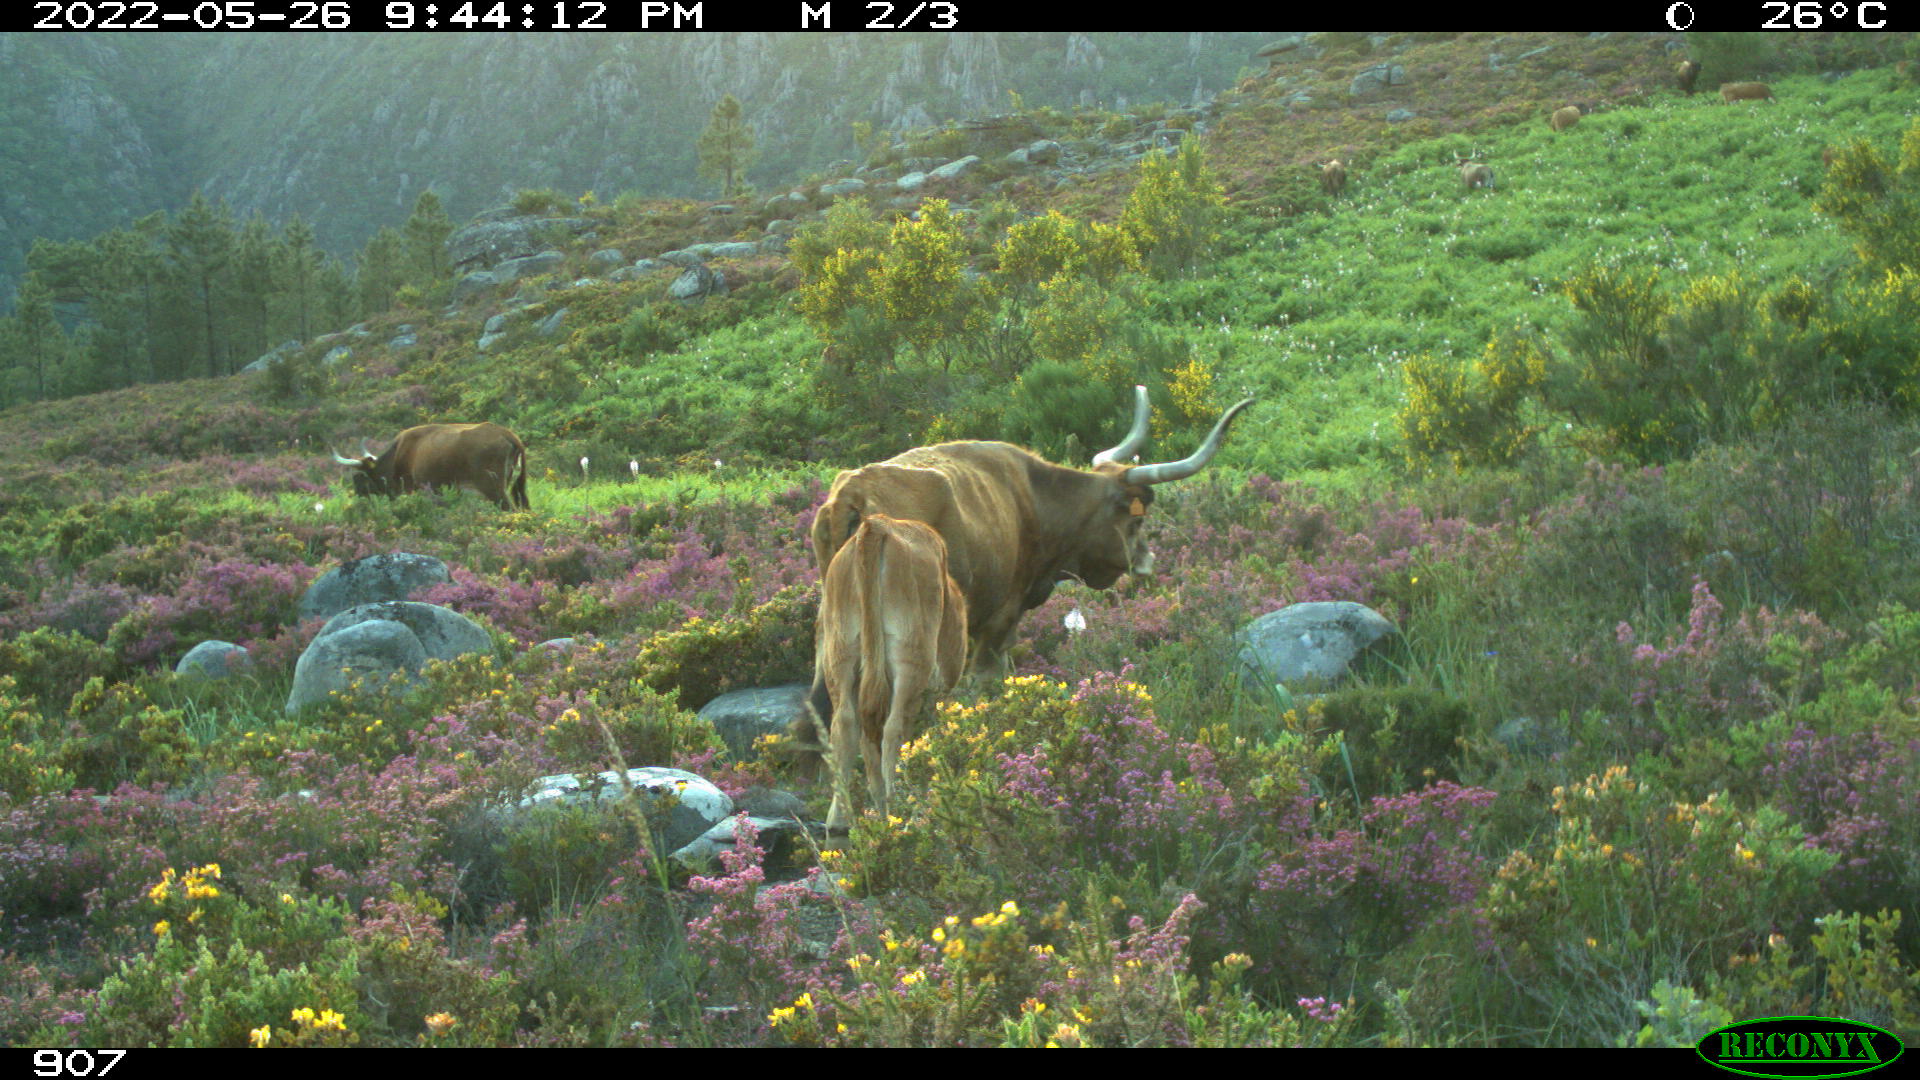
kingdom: Animalia
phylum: Chordata
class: Mammalia
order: Artiodactyla
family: Bovidae
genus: Bos
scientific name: Bos taurus
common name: Domesticated cattle
